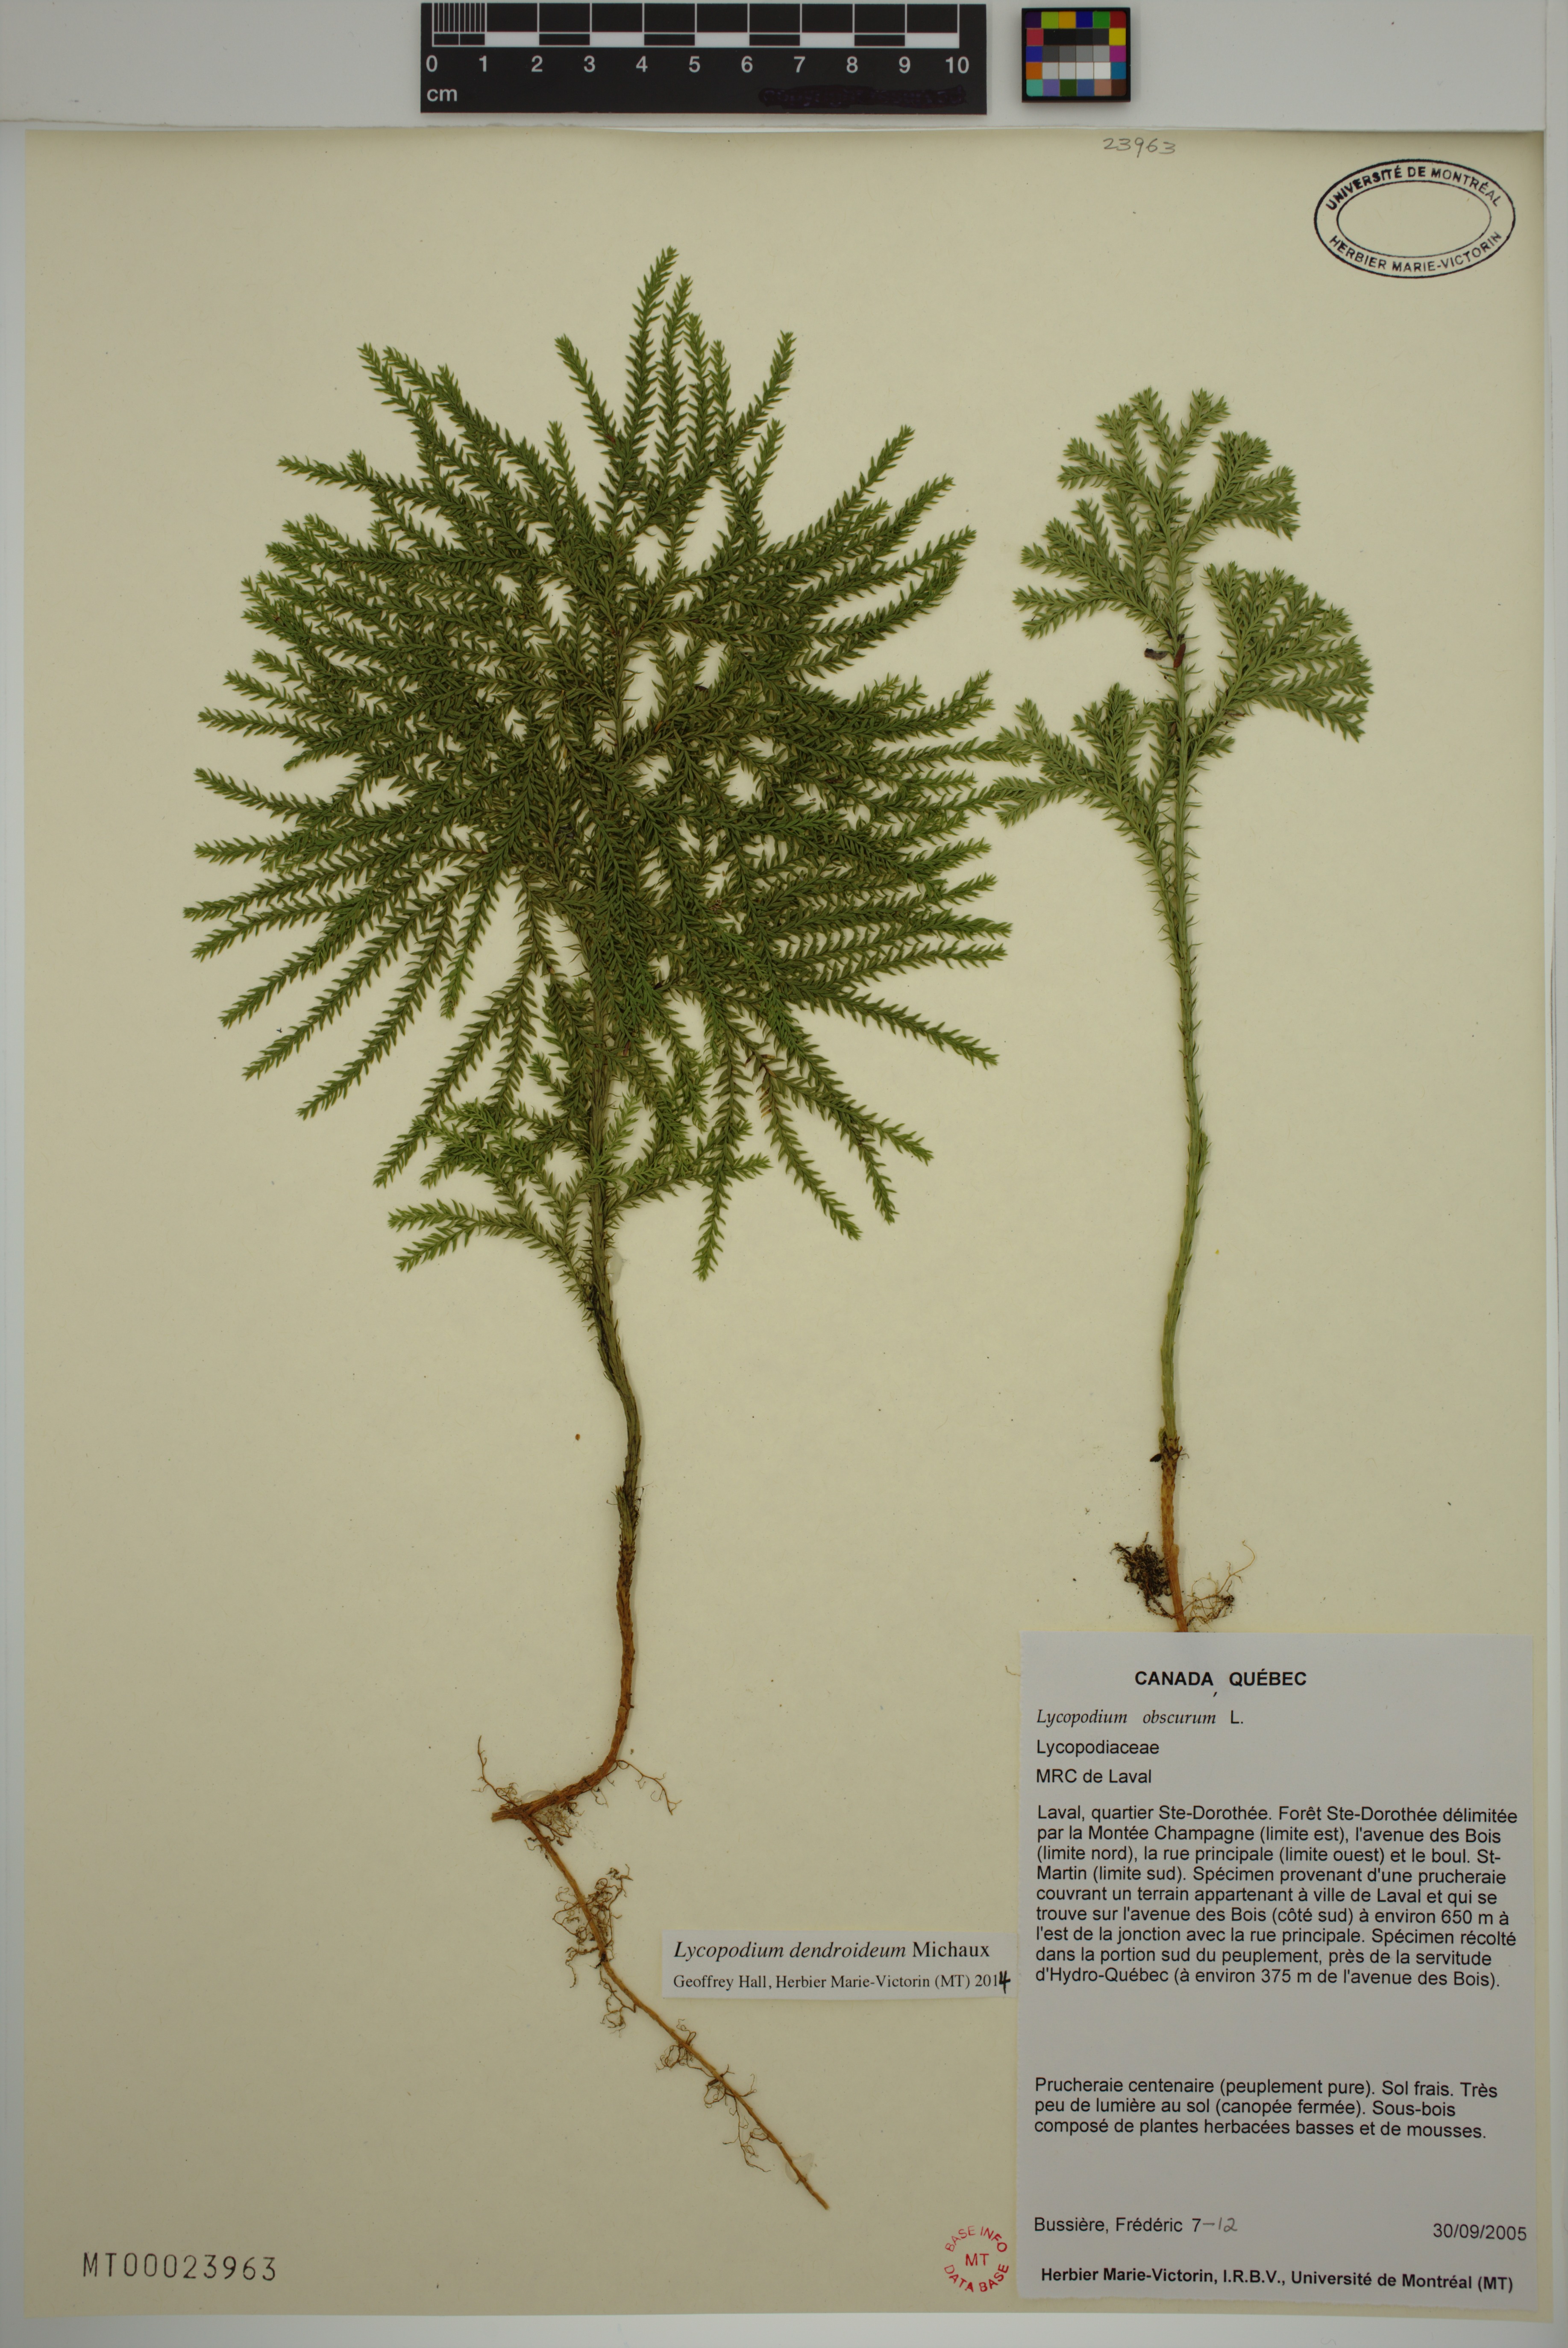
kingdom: Plantae
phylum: Tracheophyta
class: Lycopodiopsida
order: Lycopodiales
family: Lycopodiaceae
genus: Dendrolycopodium
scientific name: Dendrolycopodium dendroideum
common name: Northern tree-clubmoss
